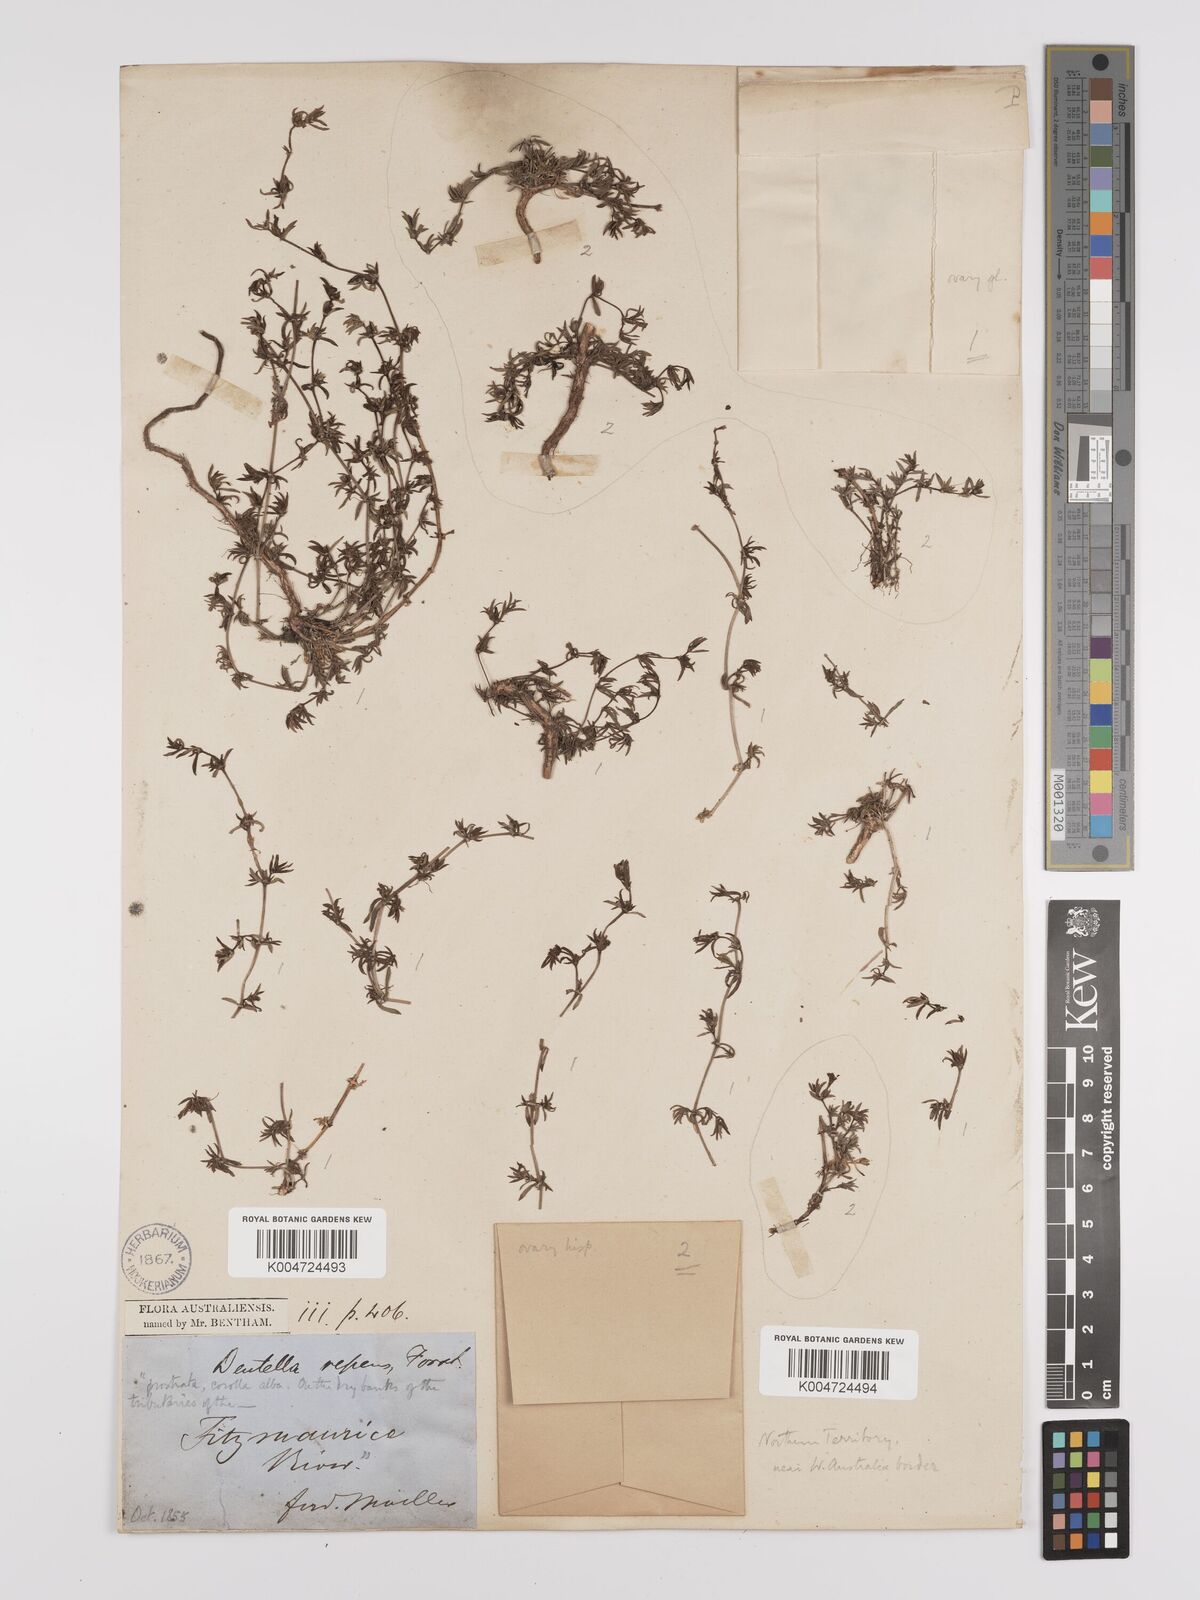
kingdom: Plantae
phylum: Tracheophyta
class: Magnoliopsida
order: Gentianales
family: Rubiaceae
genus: Dentella
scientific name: Dentella browniana
